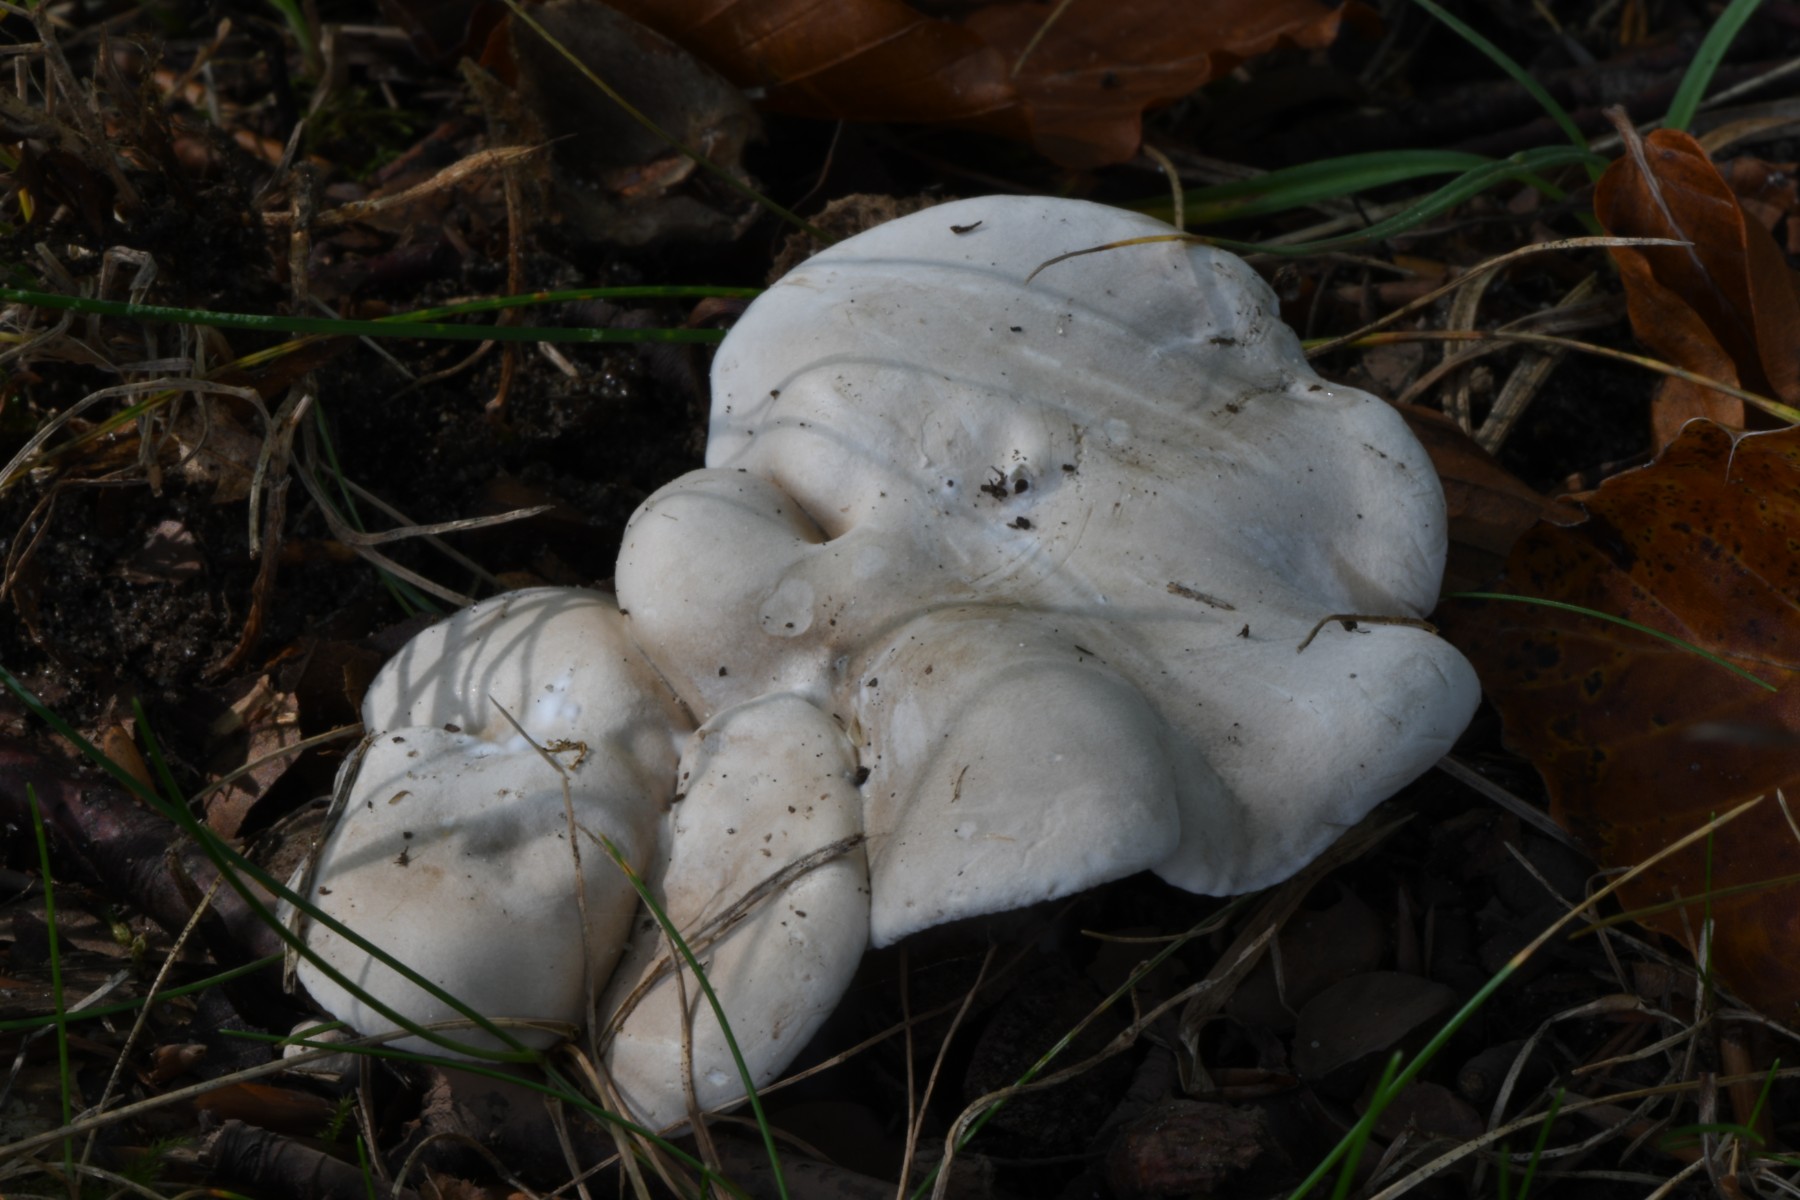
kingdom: Fungi
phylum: Basidiomycota
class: Agaricomycetes
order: Agaricales
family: Entolomataceae
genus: Clitopilus
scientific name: Clitopilus prunulus
